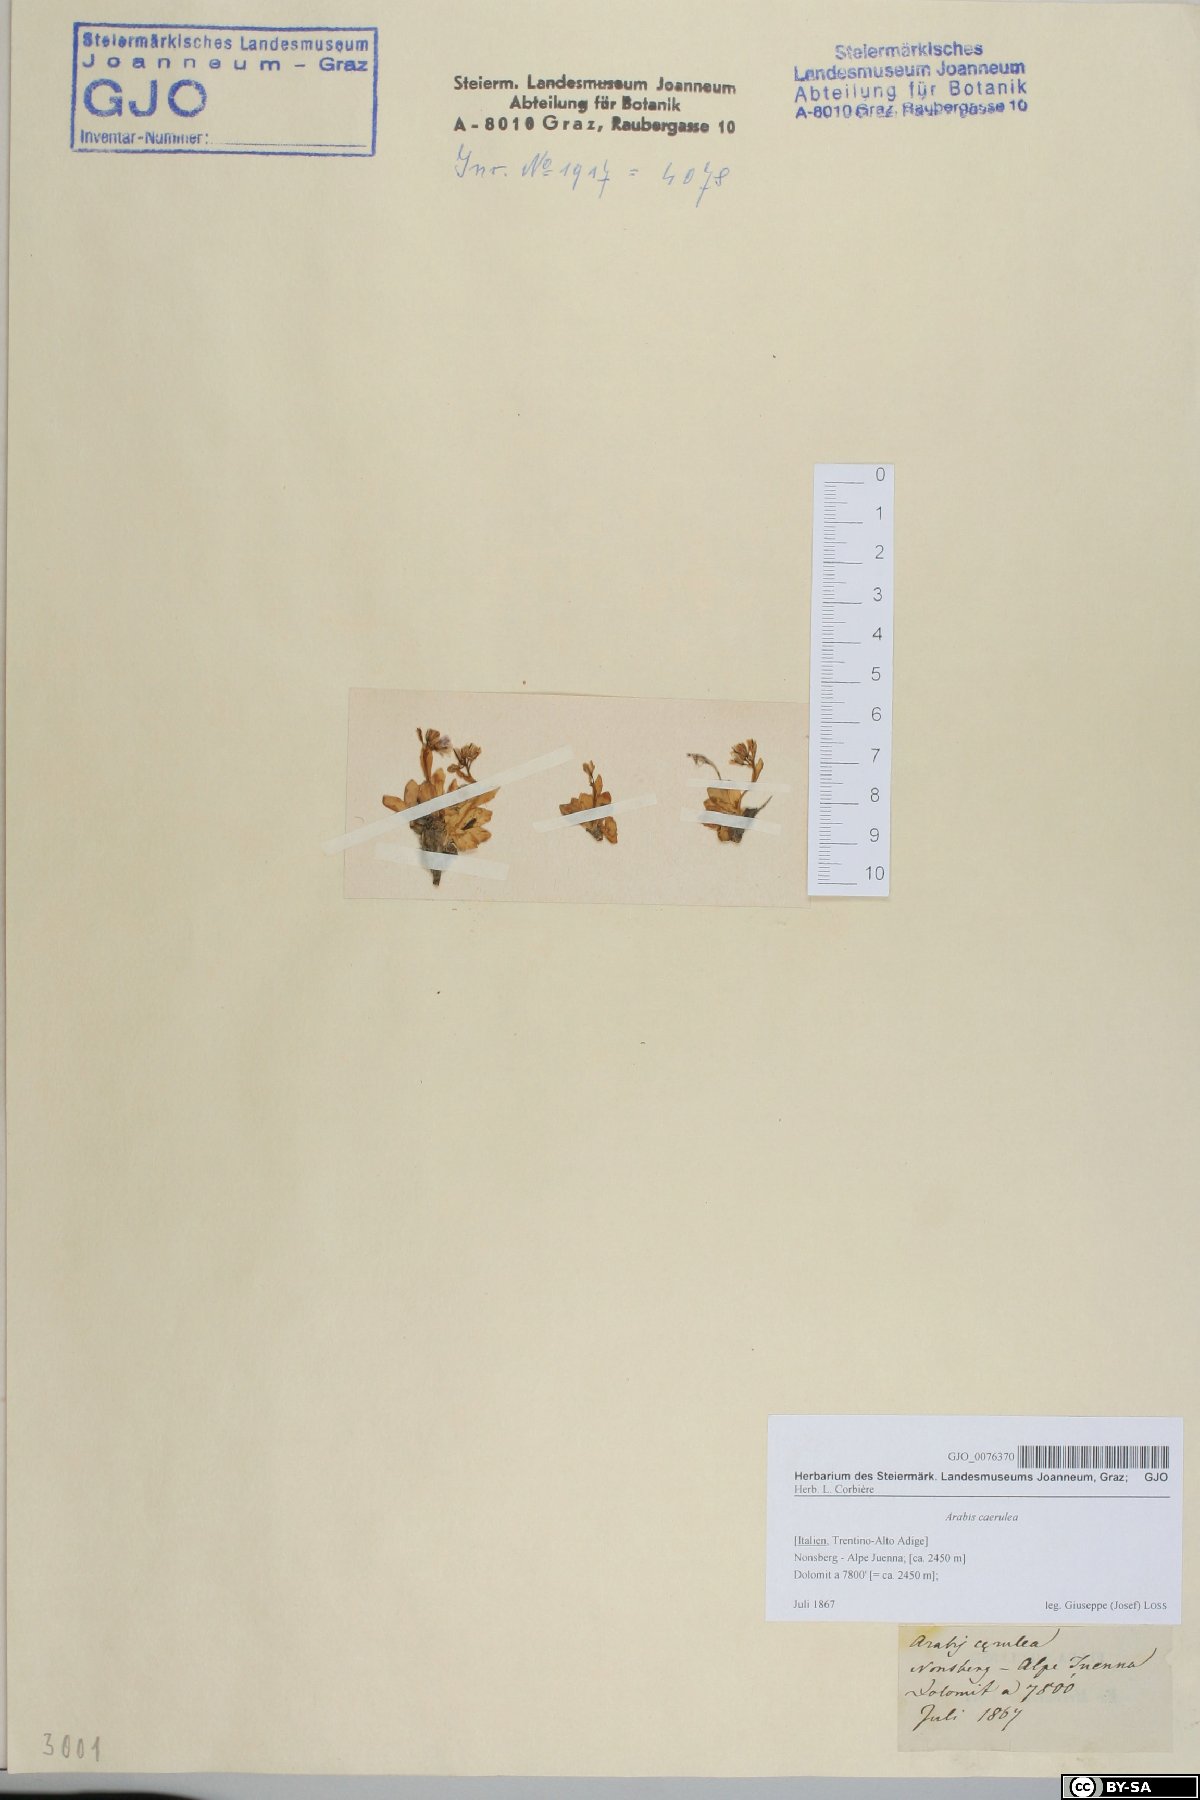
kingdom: Plantae
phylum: Tracheophyta
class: Magnoliopsida
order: Brassicales
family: Brassicaceae
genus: Arabis
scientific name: Arabis caerulea
